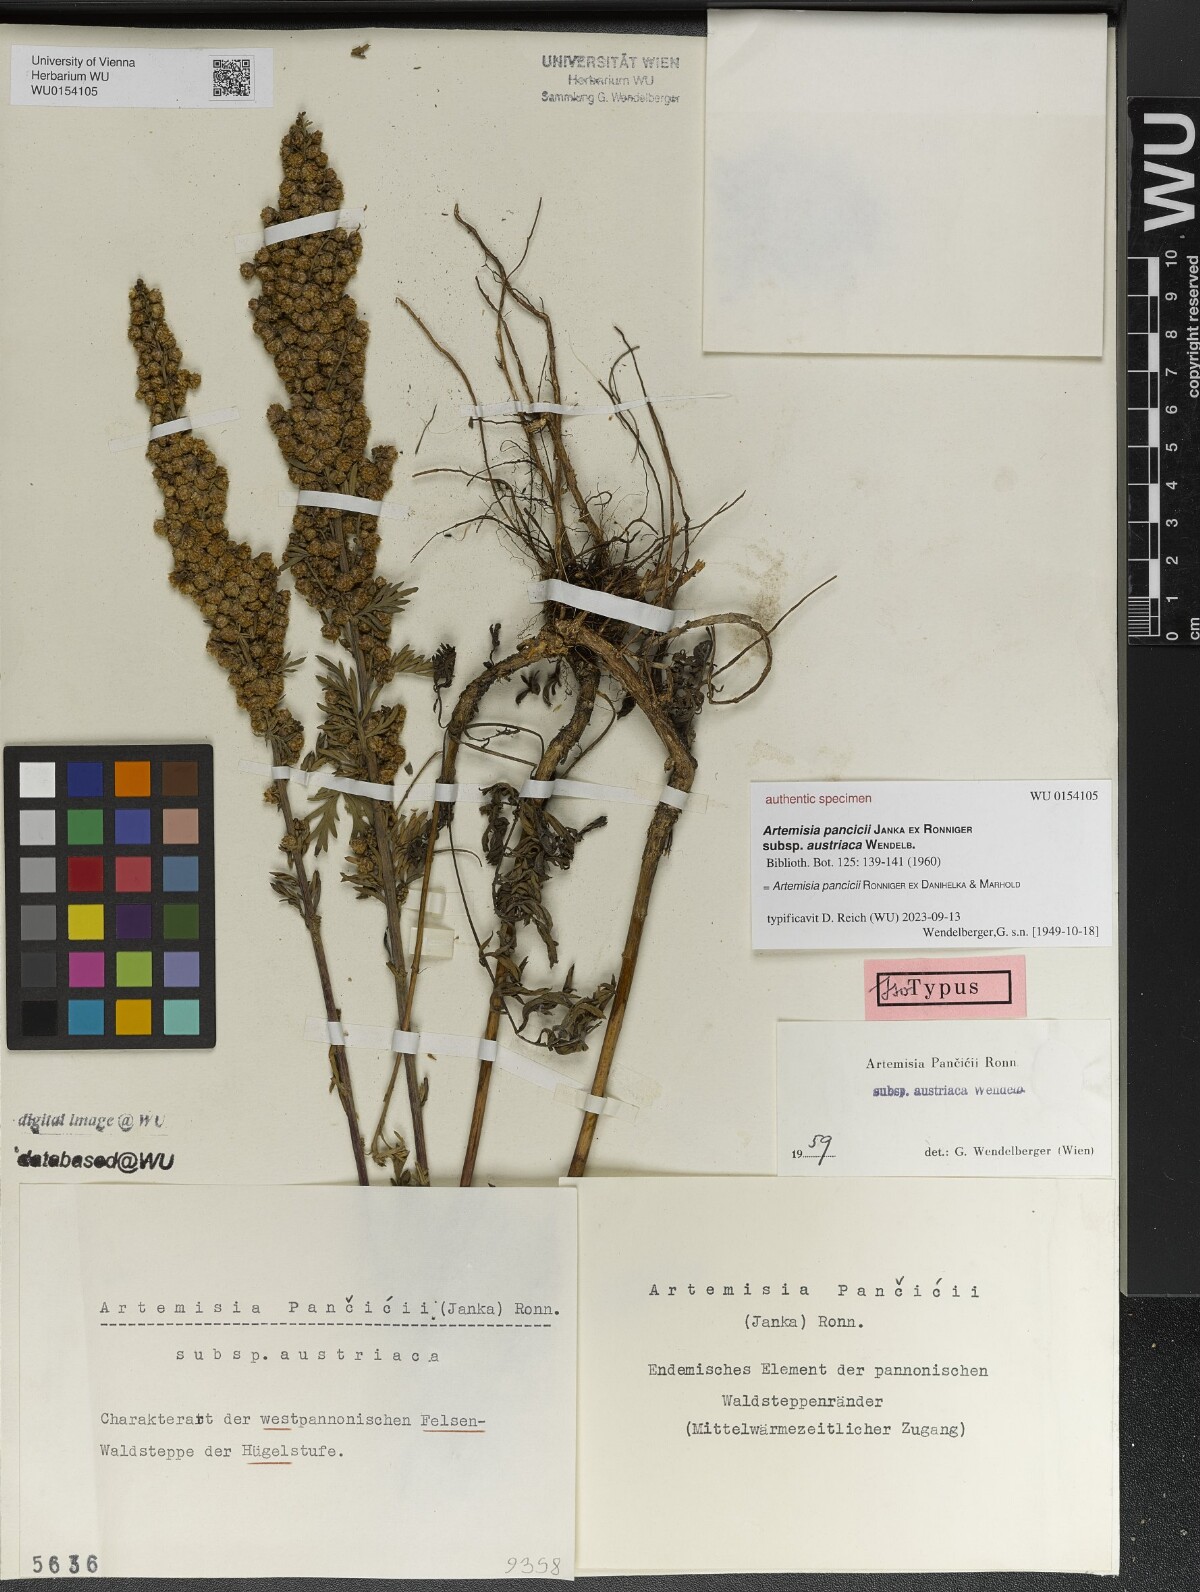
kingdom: Plantae
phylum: Tracheophyta
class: Magnoliopsida
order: Asterales
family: Asteraceae
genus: Artemisia
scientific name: Artemisia pancicii
